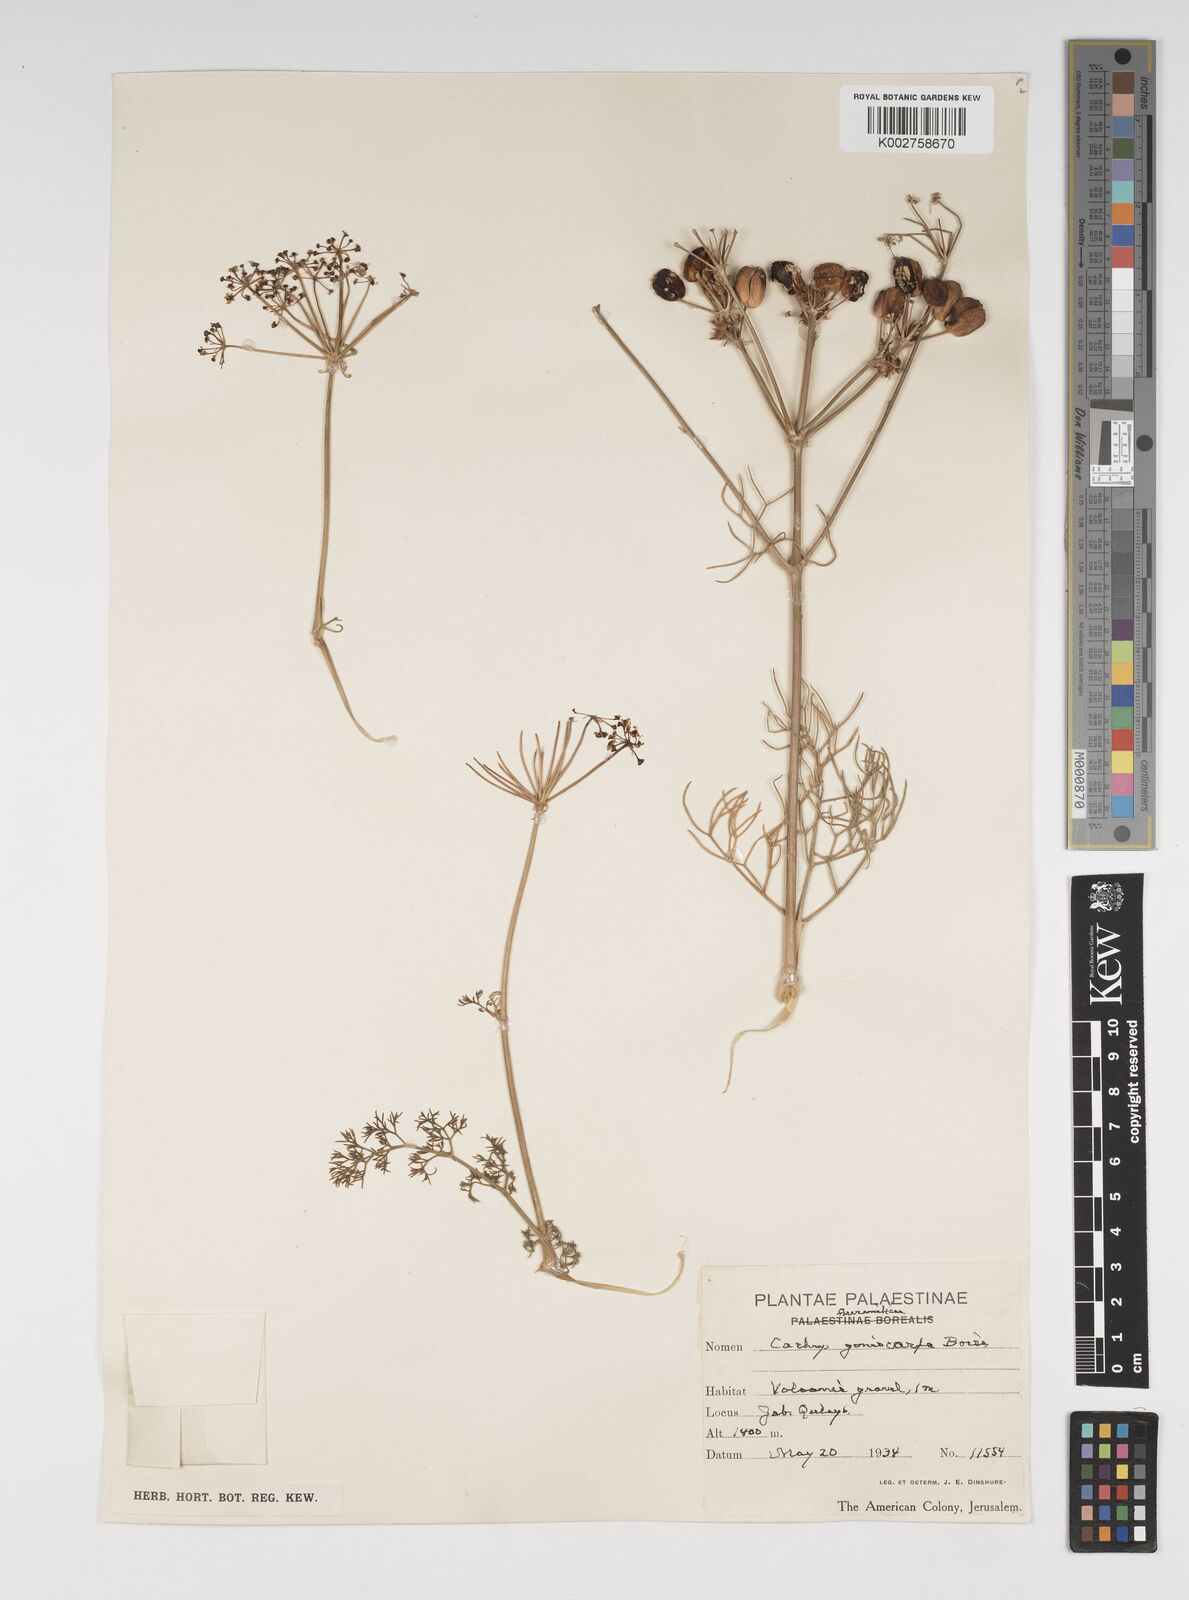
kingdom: Plantae
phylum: Tracheophyta
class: Magnoliopsida
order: Apiales
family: Apiaceae
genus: Prangos
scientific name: Prangos ferulacea
